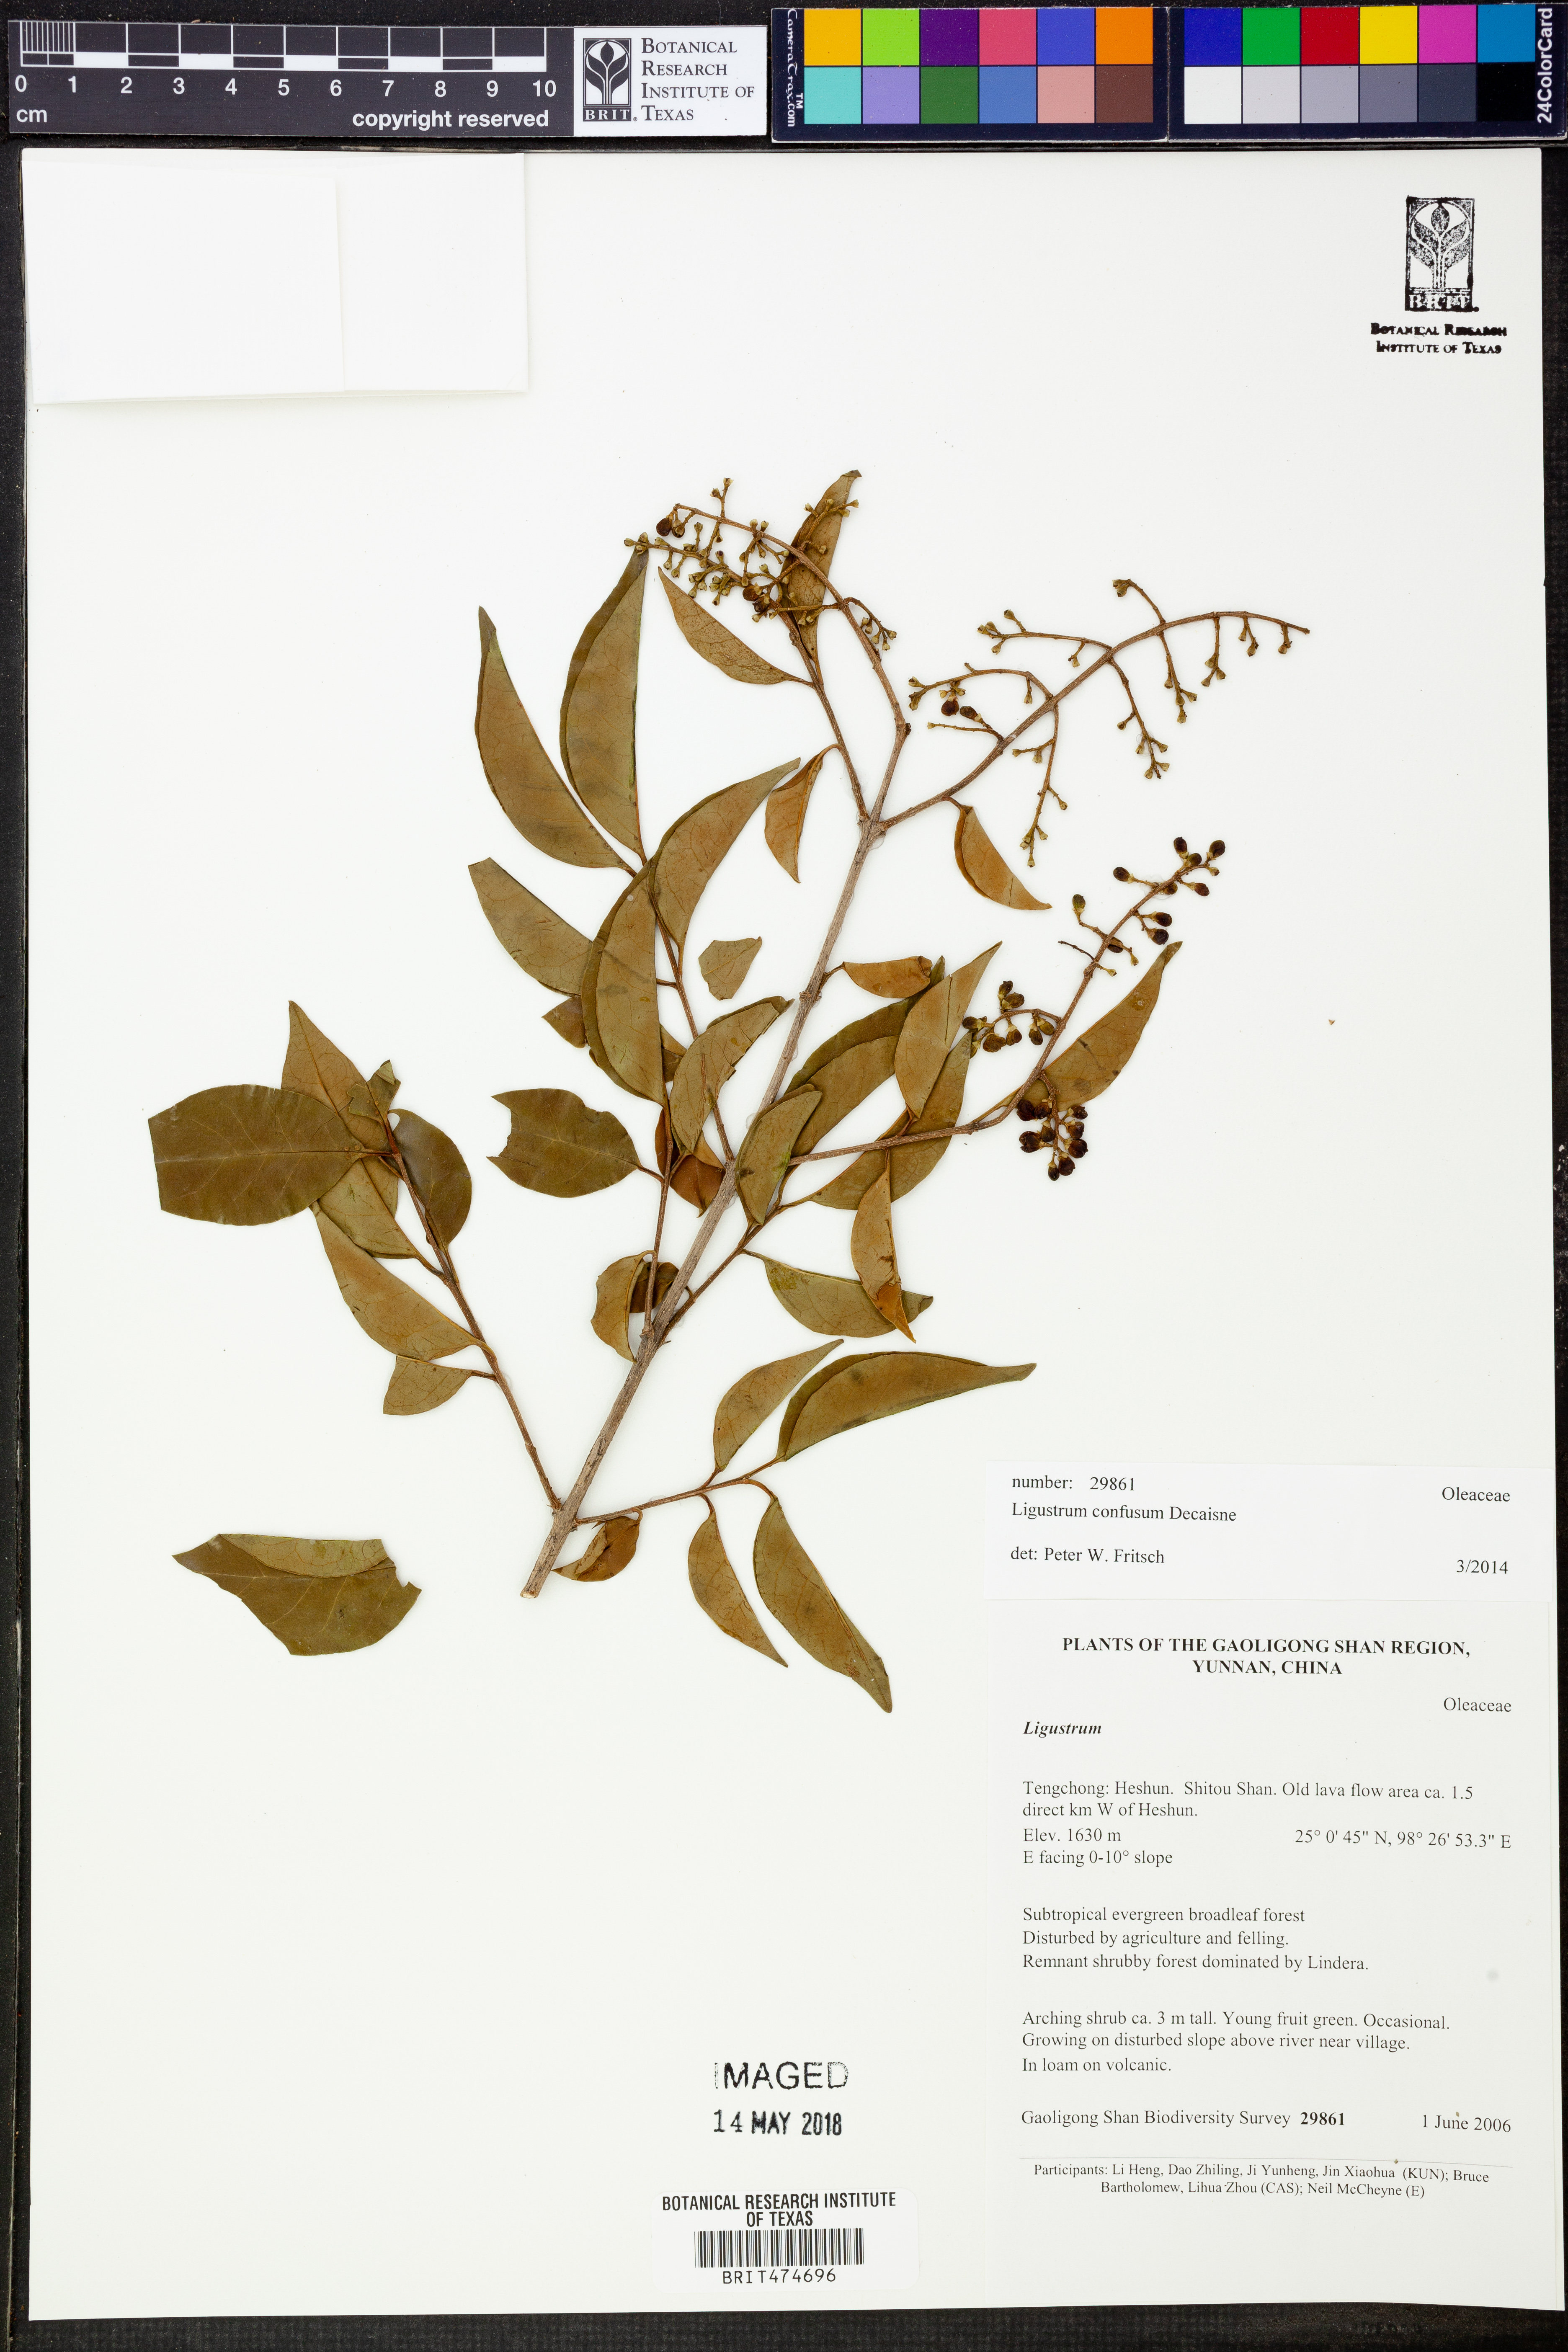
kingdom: Plantae
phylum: Tracheophyta
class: Magnoliopsida
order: Lamiales
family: Oleaceae
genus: Ligustrum
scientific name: Ligustrum confusum
